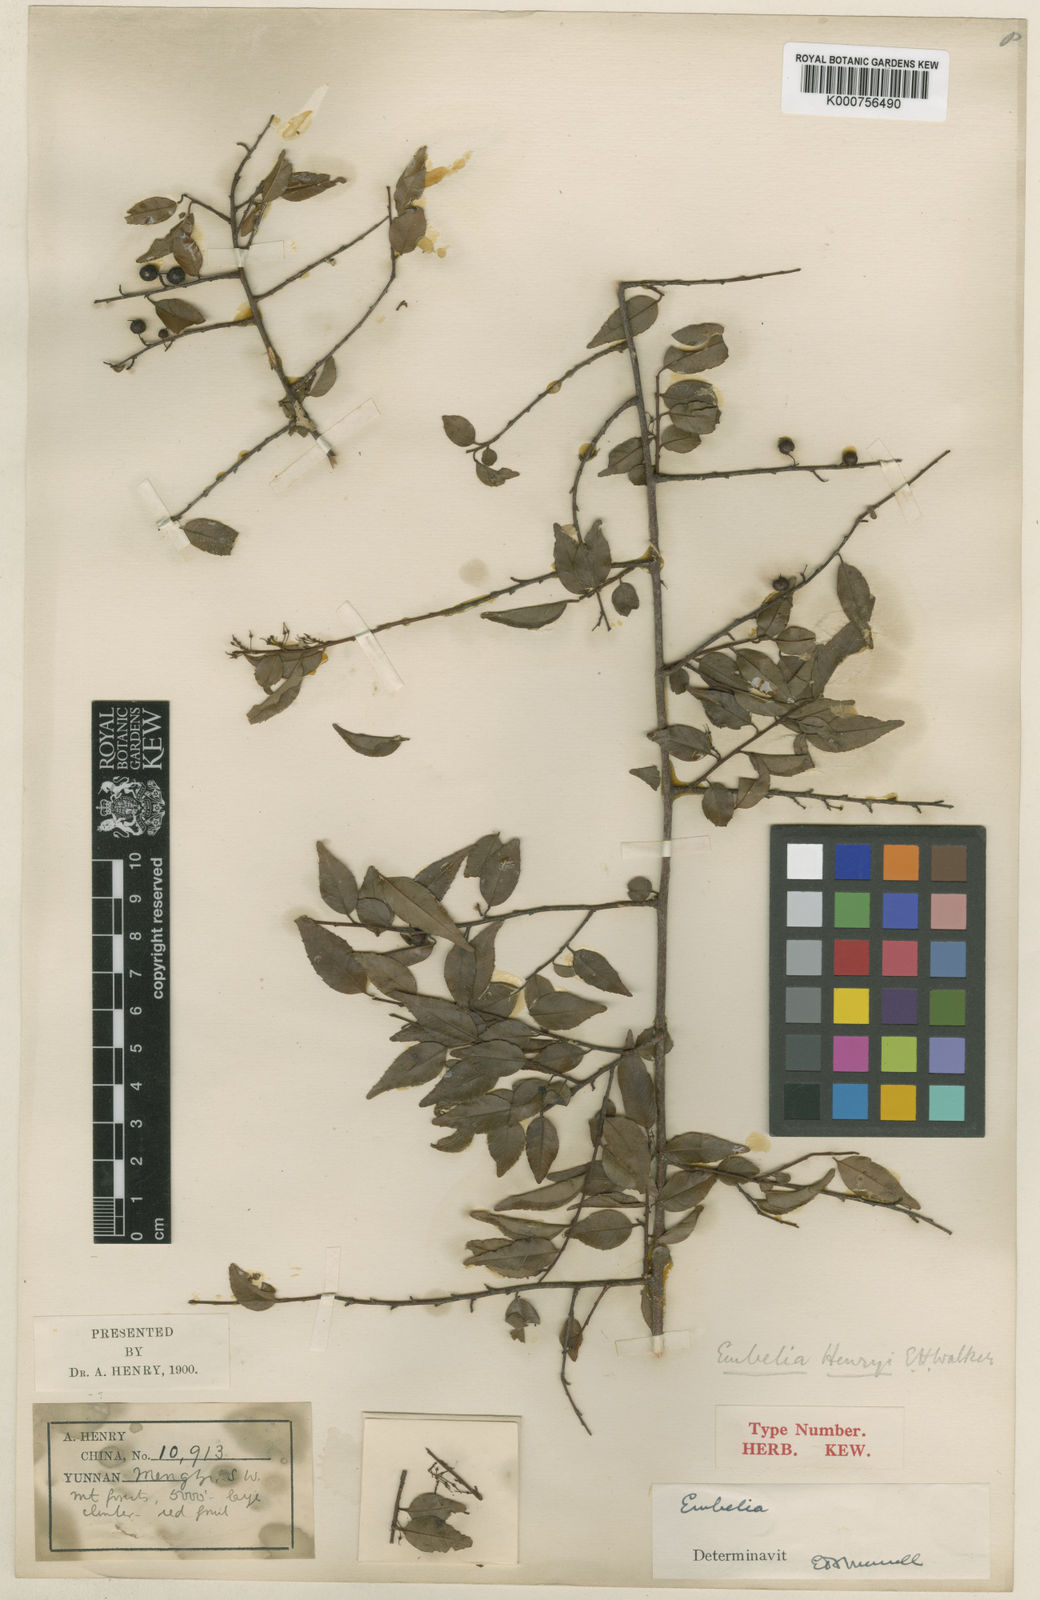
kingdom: Plantae
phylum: Tracheophyta
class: Magnoliopsida
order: Ericales
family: Primulaceae
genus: Embelia
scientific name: Embelia henryi
